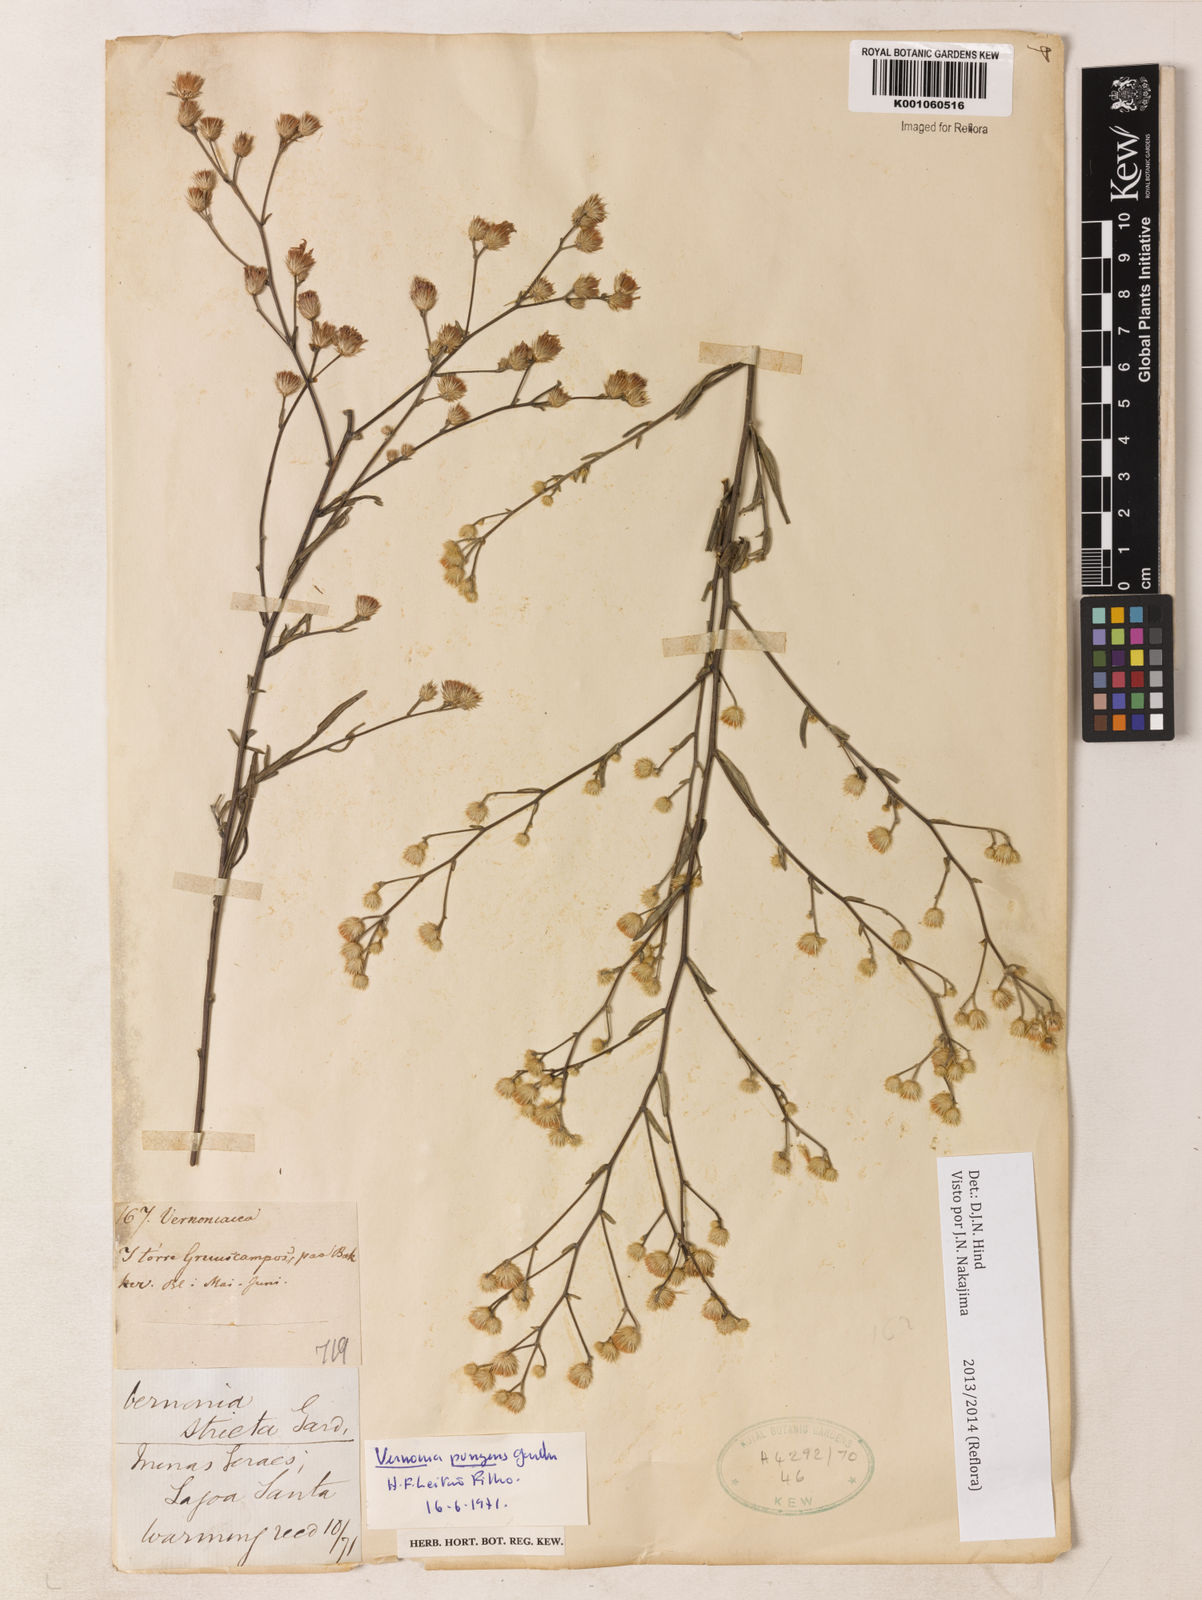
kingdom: Plantae
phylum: Tracheophyta
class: Magnoliopsida
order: Asterales
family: Asteraceae
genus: Echinocoryne
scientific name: Echinocoryne pungens
